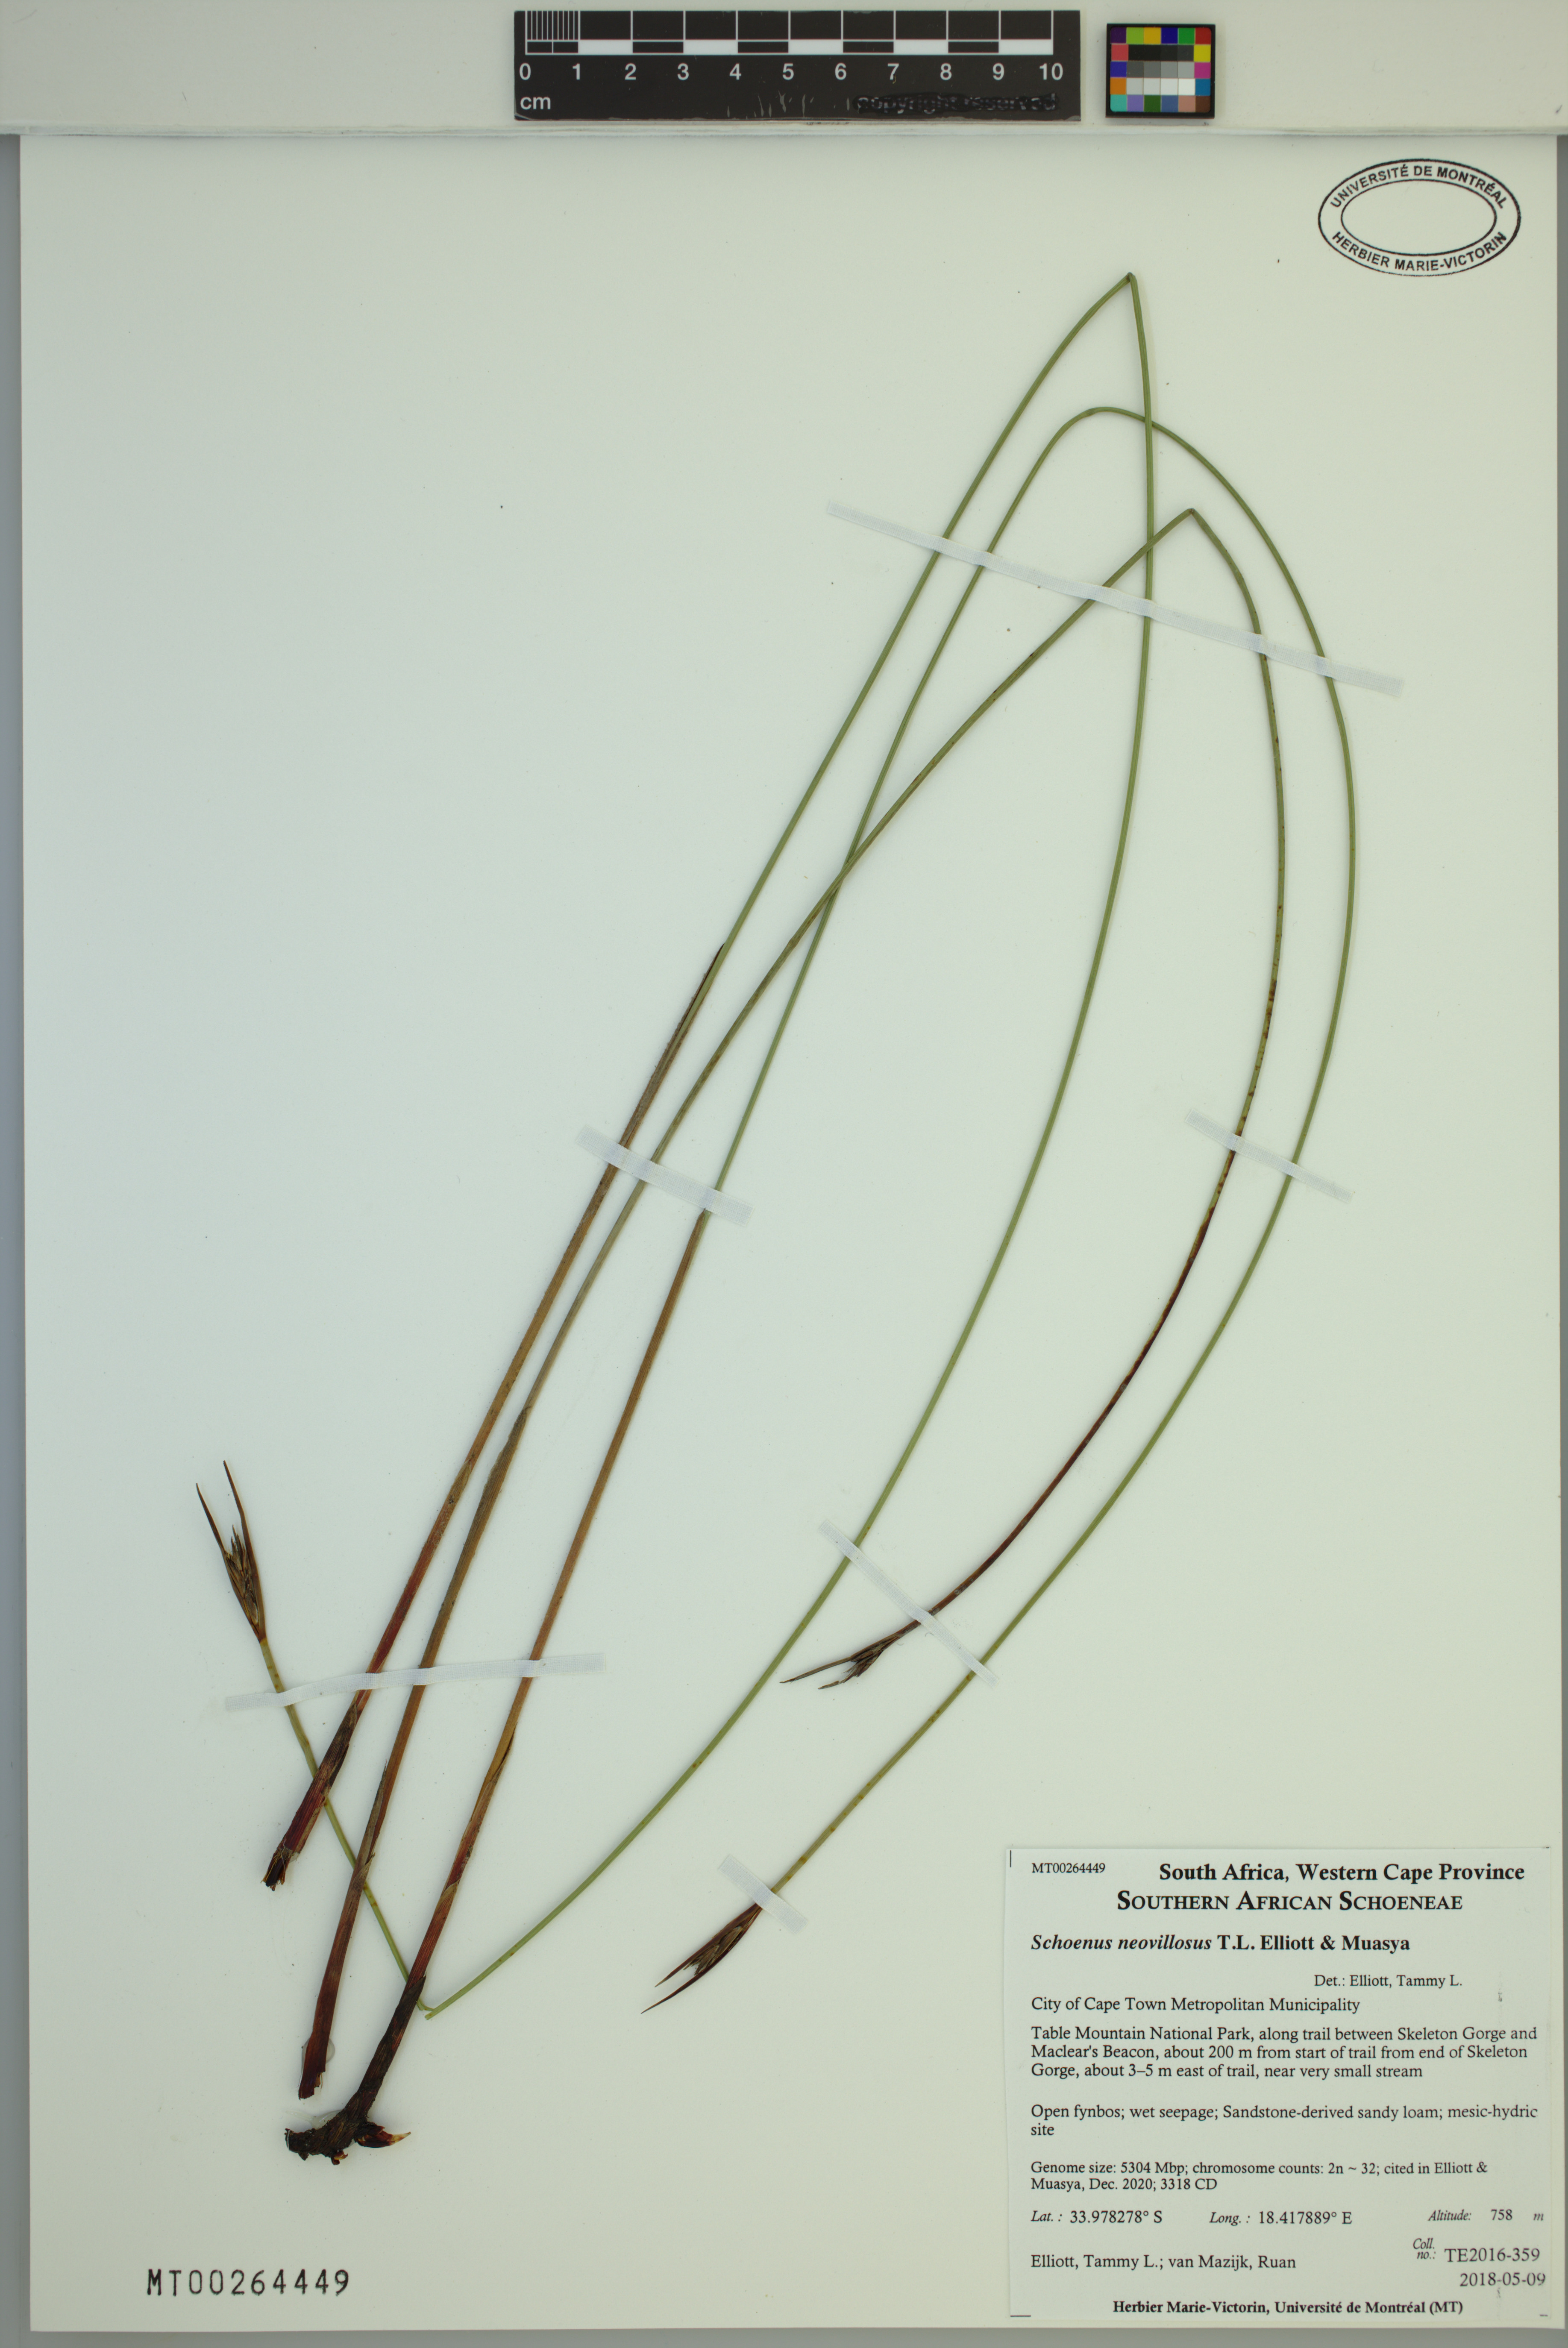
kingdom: Plantae
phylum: Tracheophyta
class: Liliopsida
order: Poales
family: Cyperaceae
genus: Schoenus
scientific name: Schoenus neovillosus
